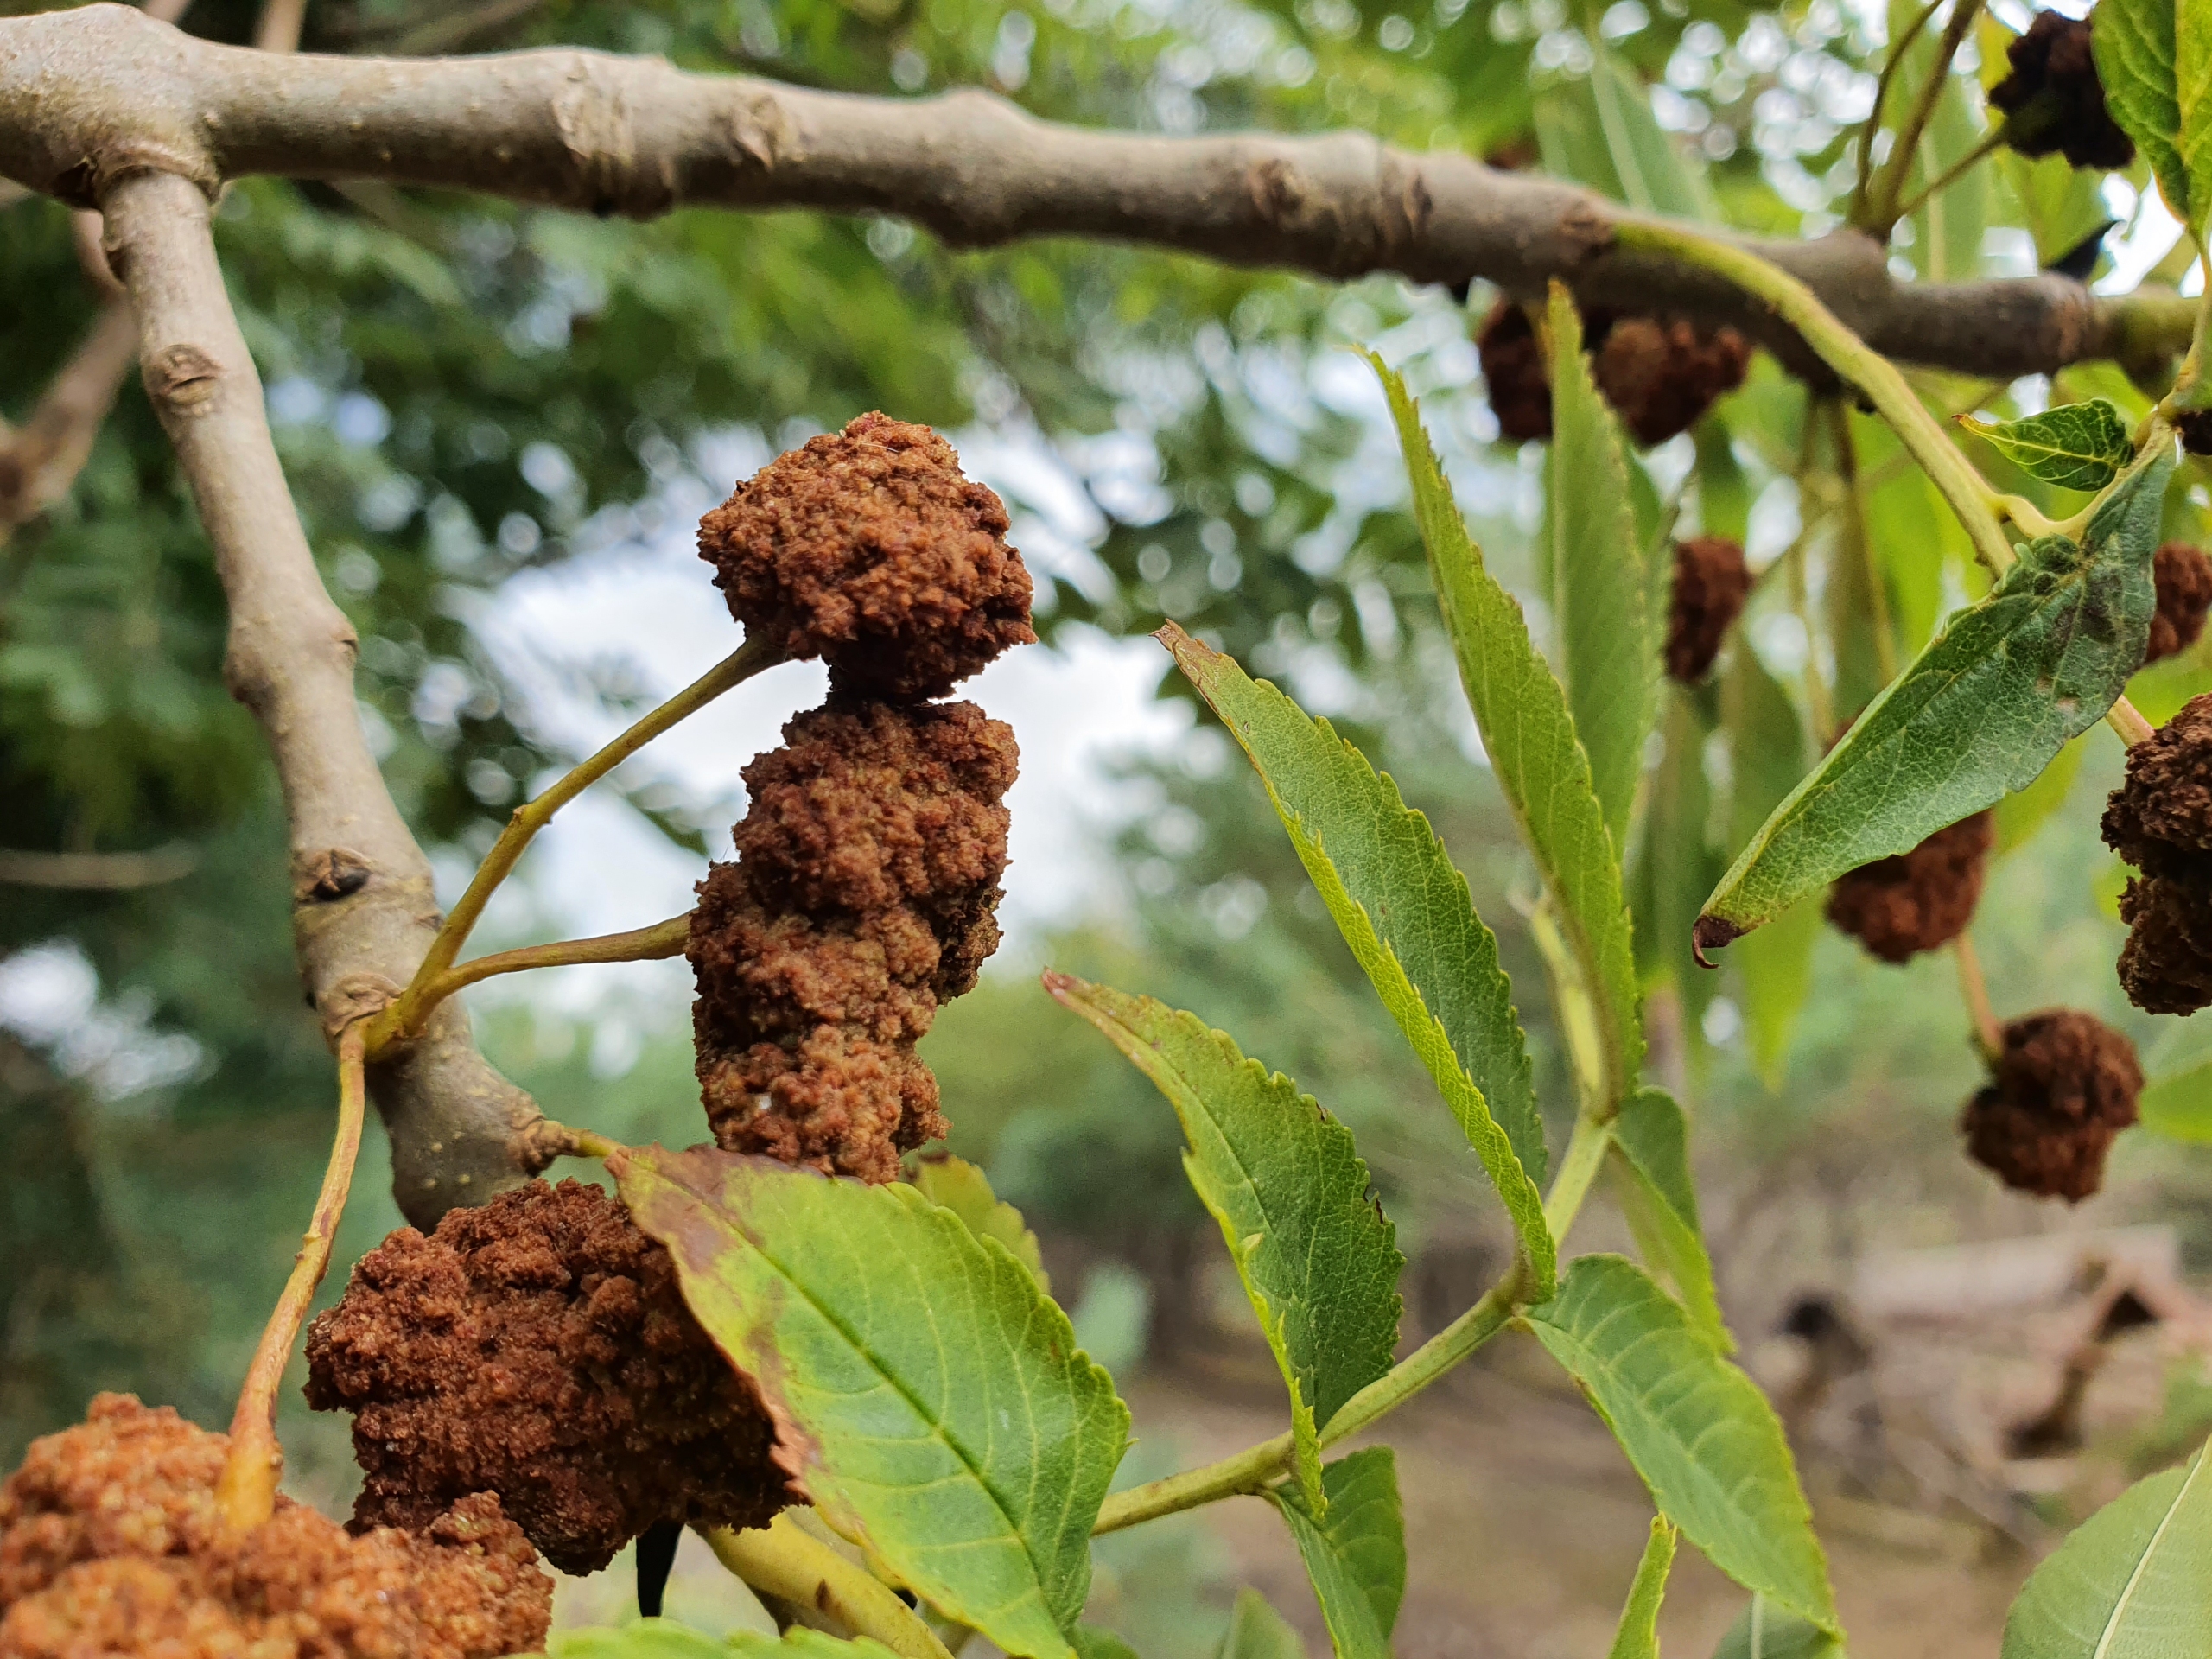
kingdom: Animalia
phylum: Arthropoda
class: Arachnida
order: Trombidiformes
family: Eriophyidae
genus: Aceria
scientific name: Aceria fraxinivora
